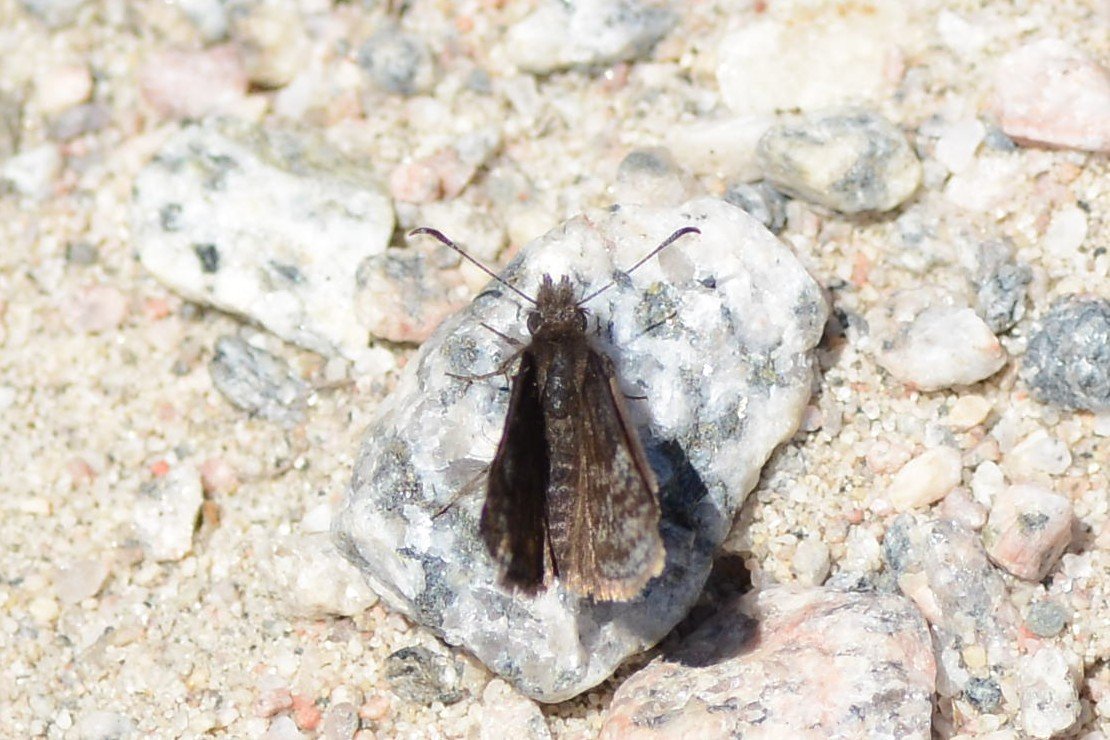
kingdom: Animalia
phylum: Arthropoda
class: Insecta
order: Lepidoptera
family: Hesperiidae
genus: Erynnis
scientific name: Erynnis icelus
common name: Dreamy Duskywing
